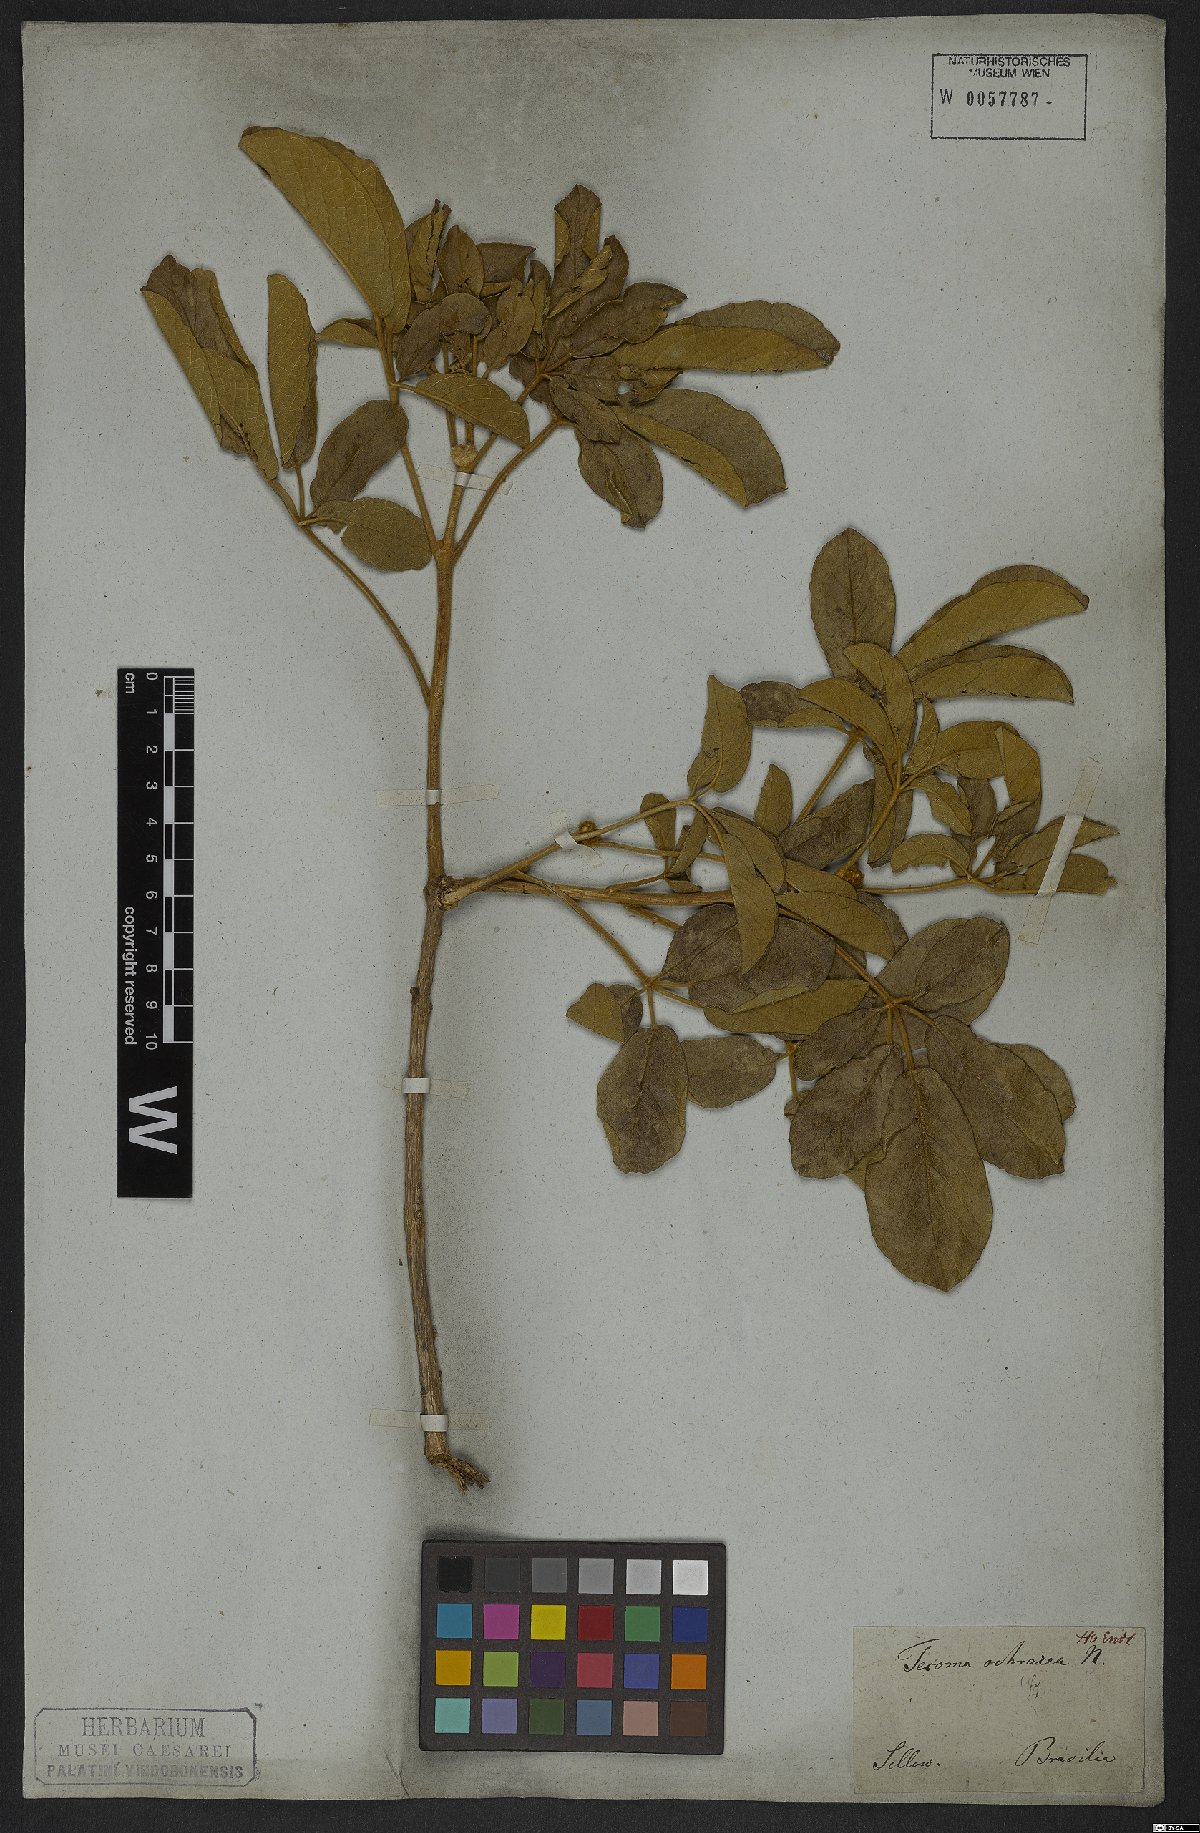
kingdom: Plantae
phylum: Tracheophyta
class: Magnoliopsida
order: Lamiales
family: Bignoniaceae
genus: Handroanthus
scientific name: Handroanthus ochraceus
